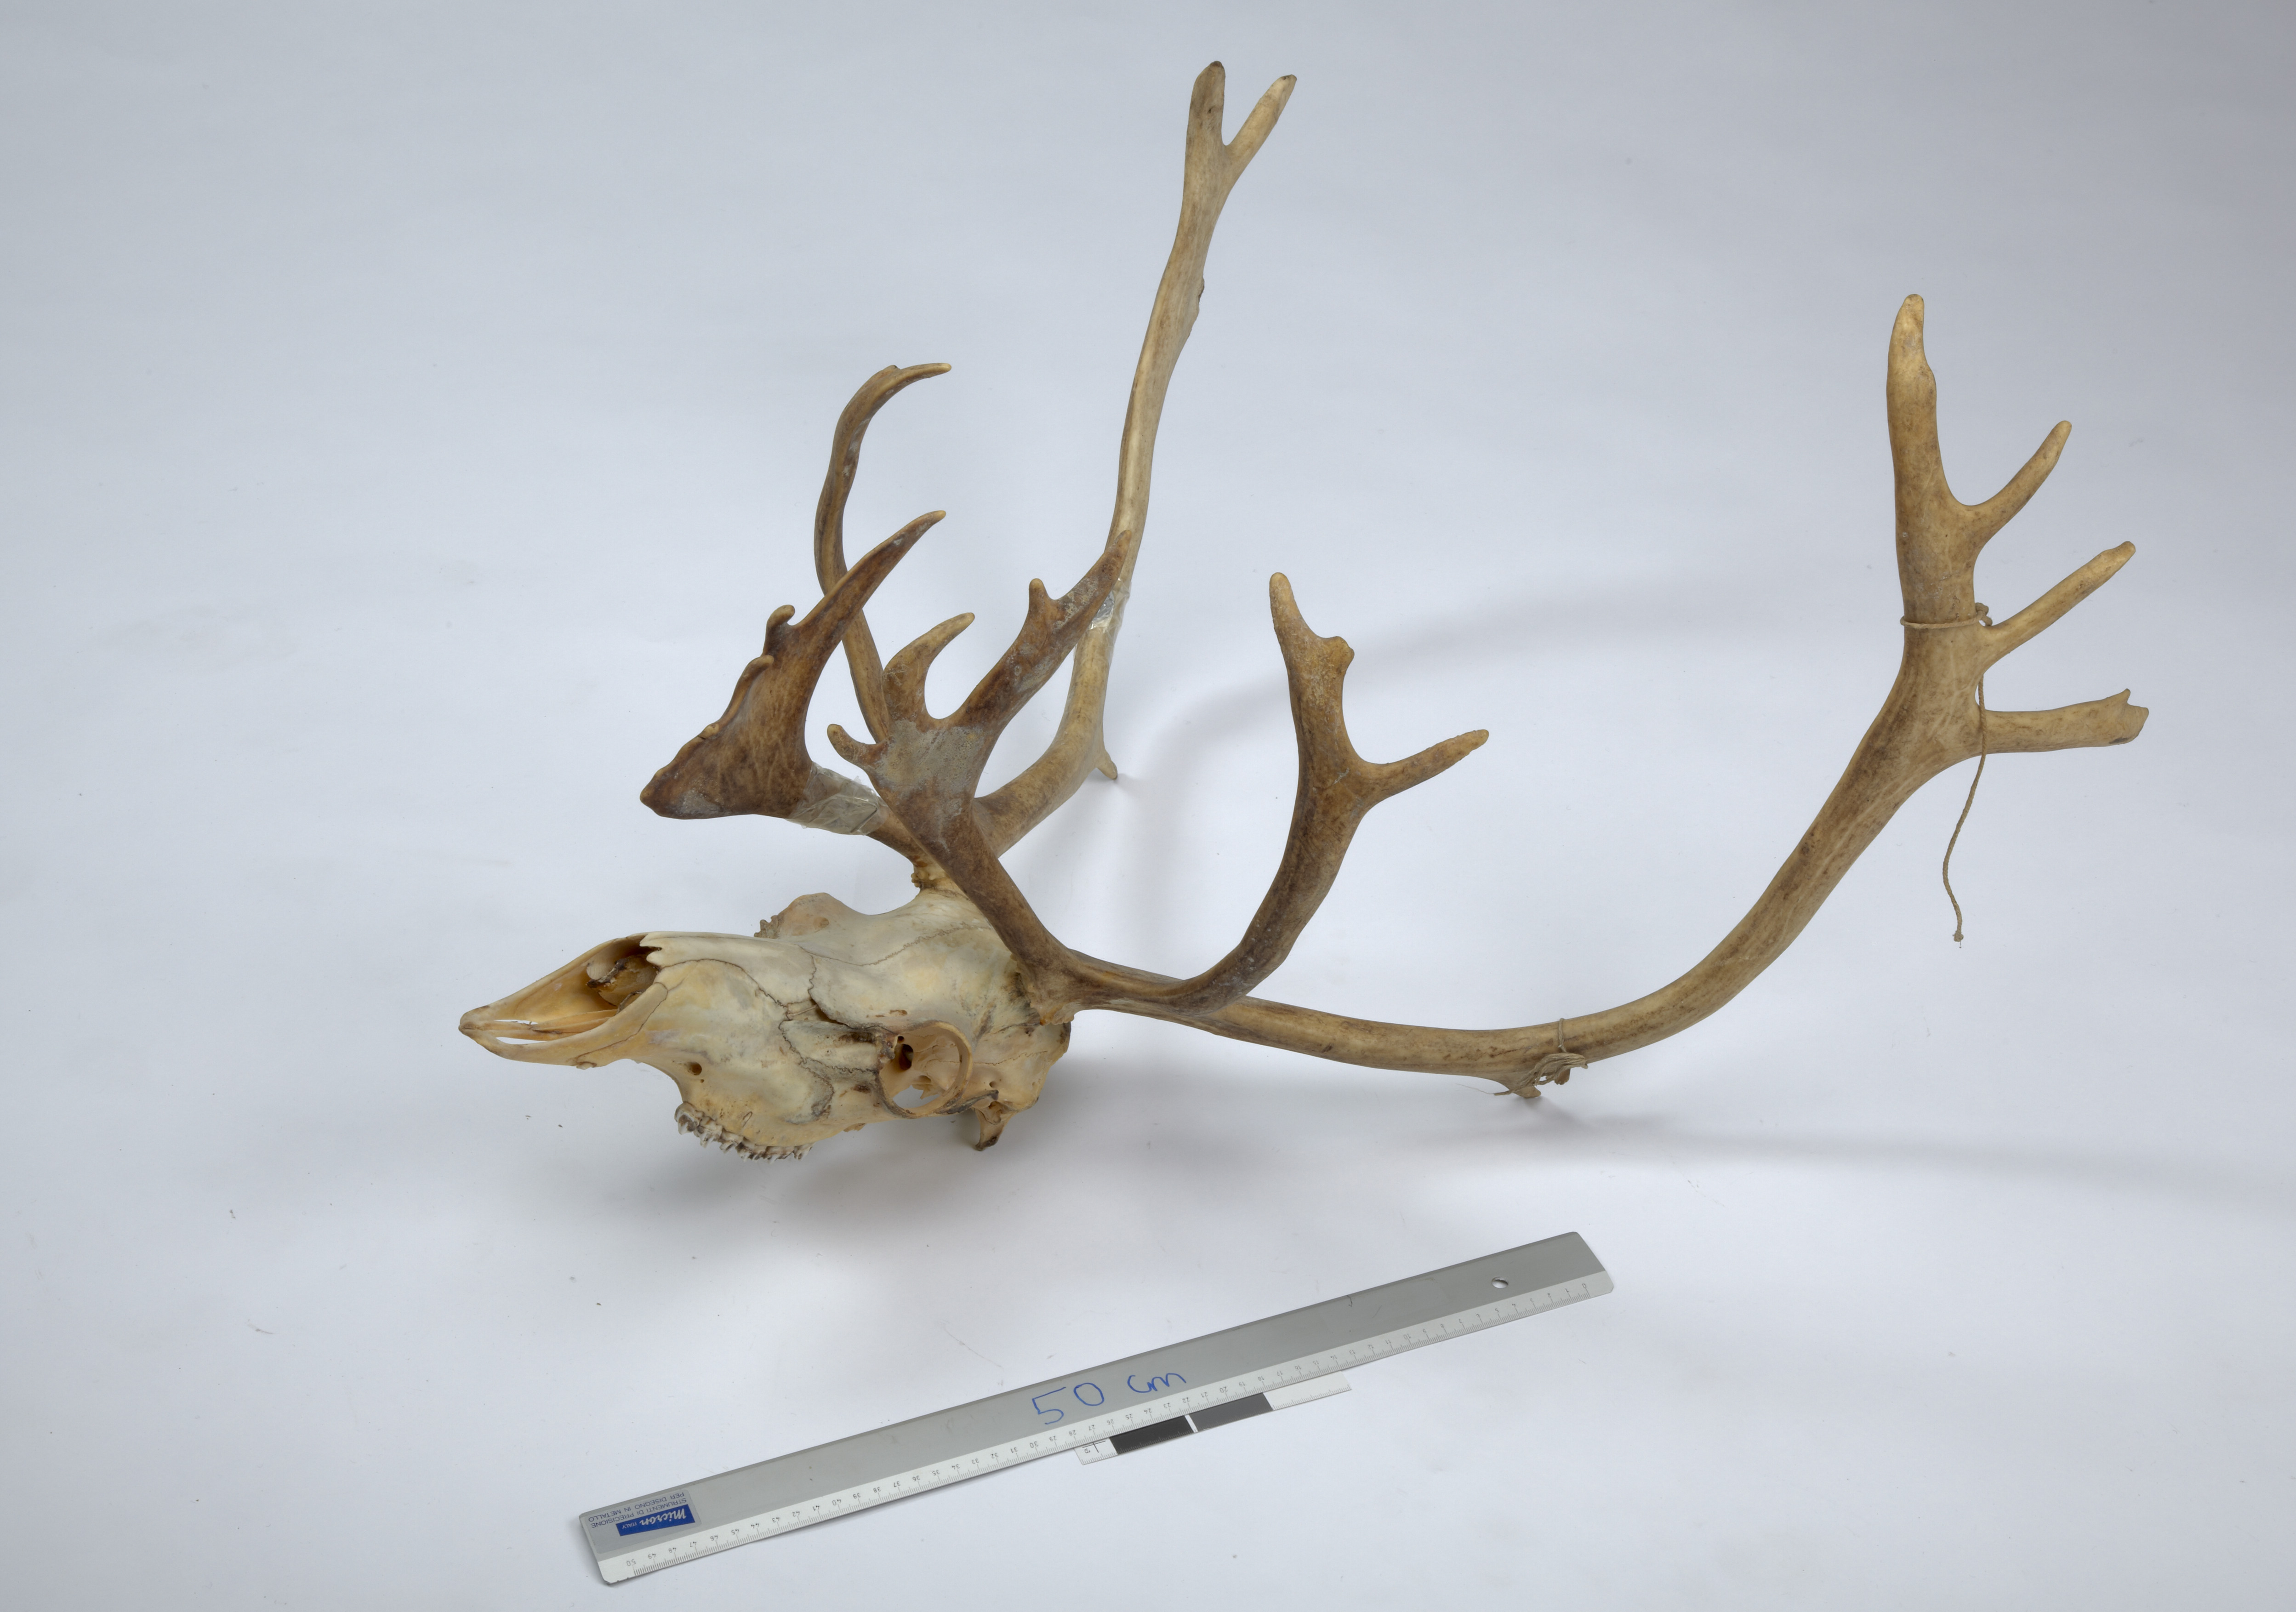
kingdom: Animalia
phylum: Chordata
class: Mammalia
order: Artiodactyla
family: Cervidae
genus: Rangifer
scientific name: Rangifer tarandus
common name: Reindeer
